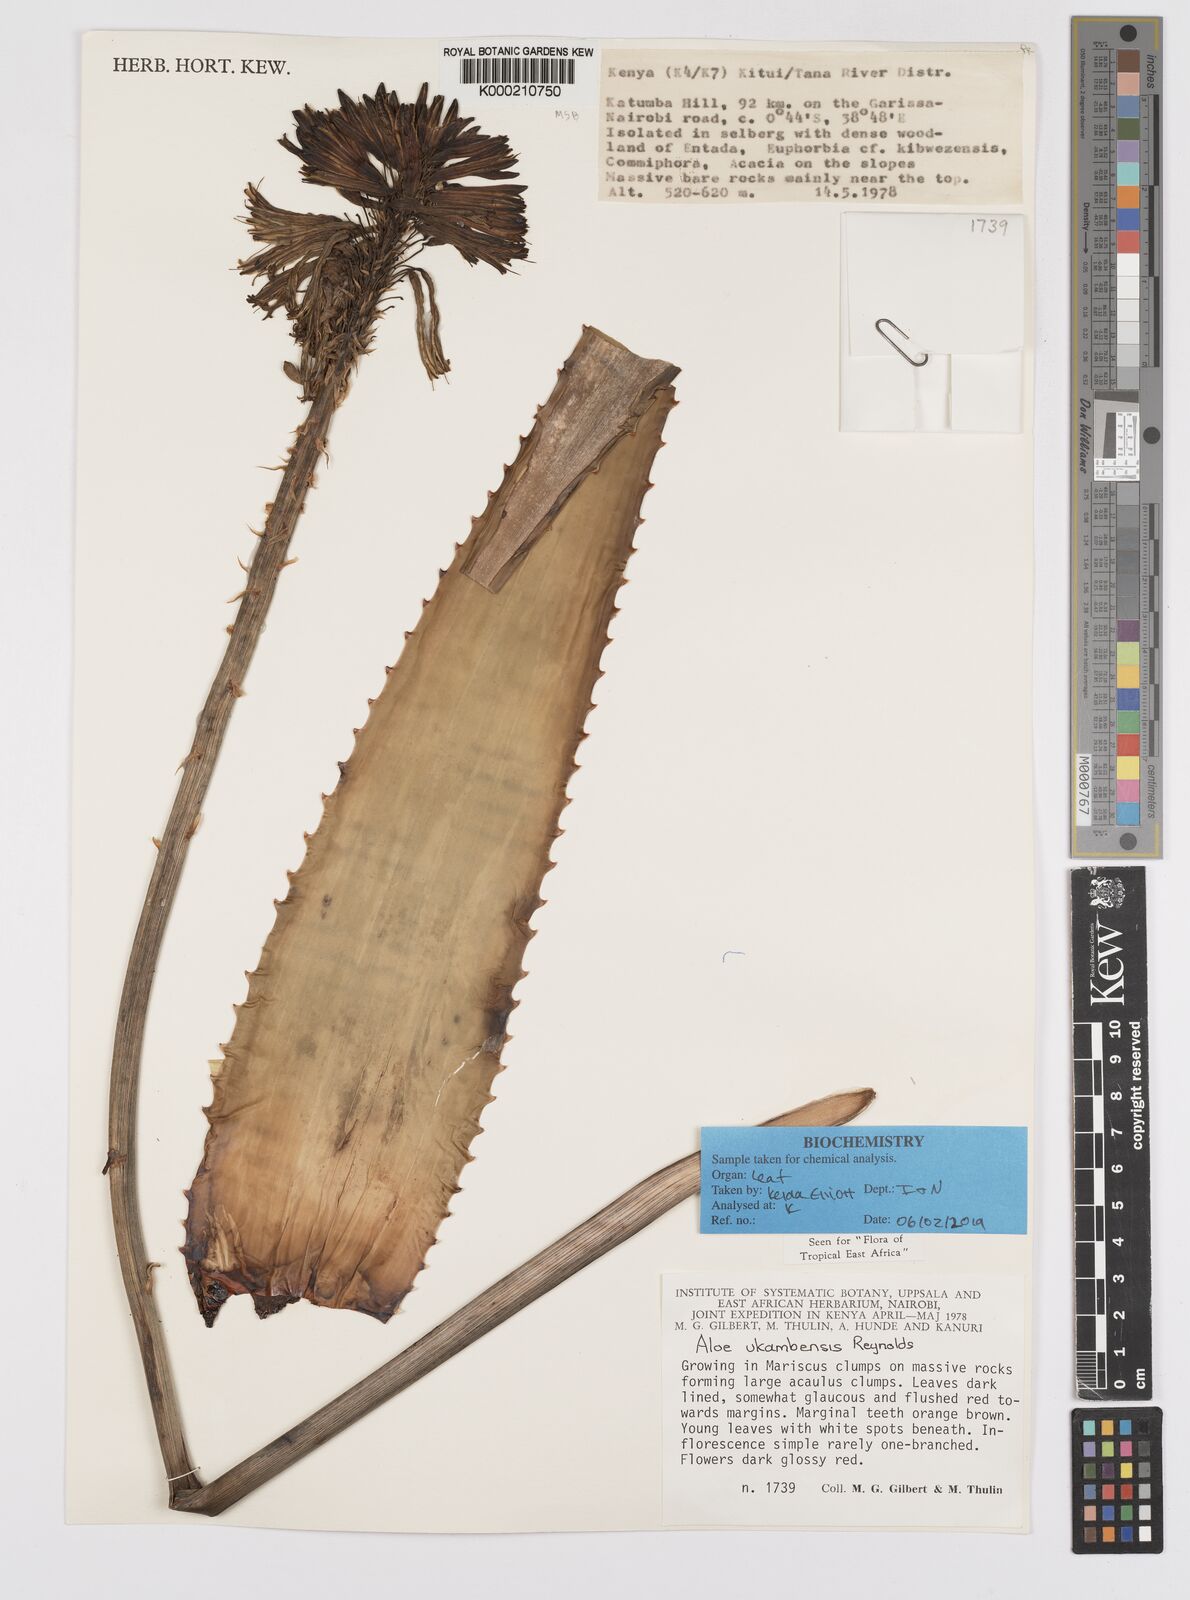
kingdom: Plantae
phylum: Tracheophyta
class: Liliopsida
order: Asparagales
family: Asphodelaceae
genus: Aloe
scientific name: Aloe ukambensis
